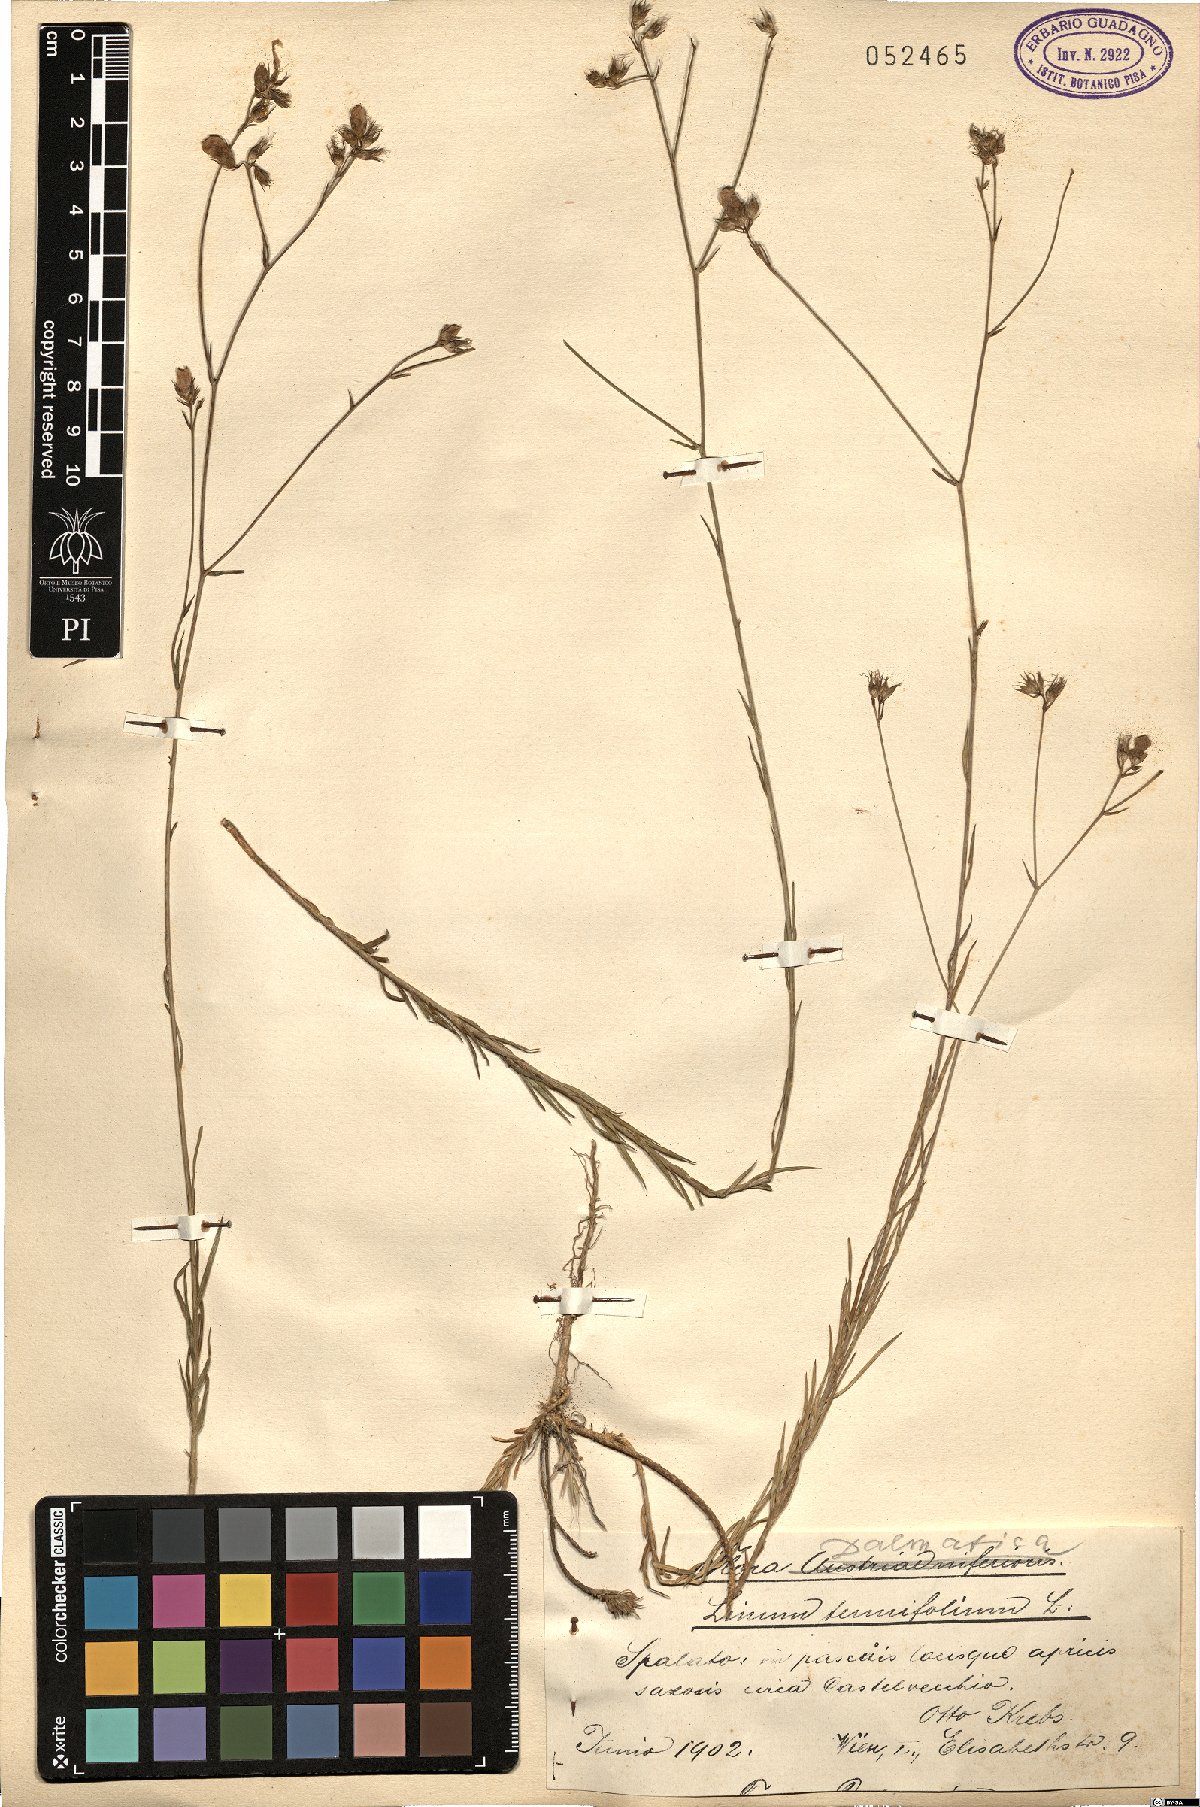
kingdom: Plantae
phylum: Tracheophyta
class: Magnoliopsida
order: Malpighiales
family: Linaceae
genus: Linum
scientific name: Linum tenuifolium
